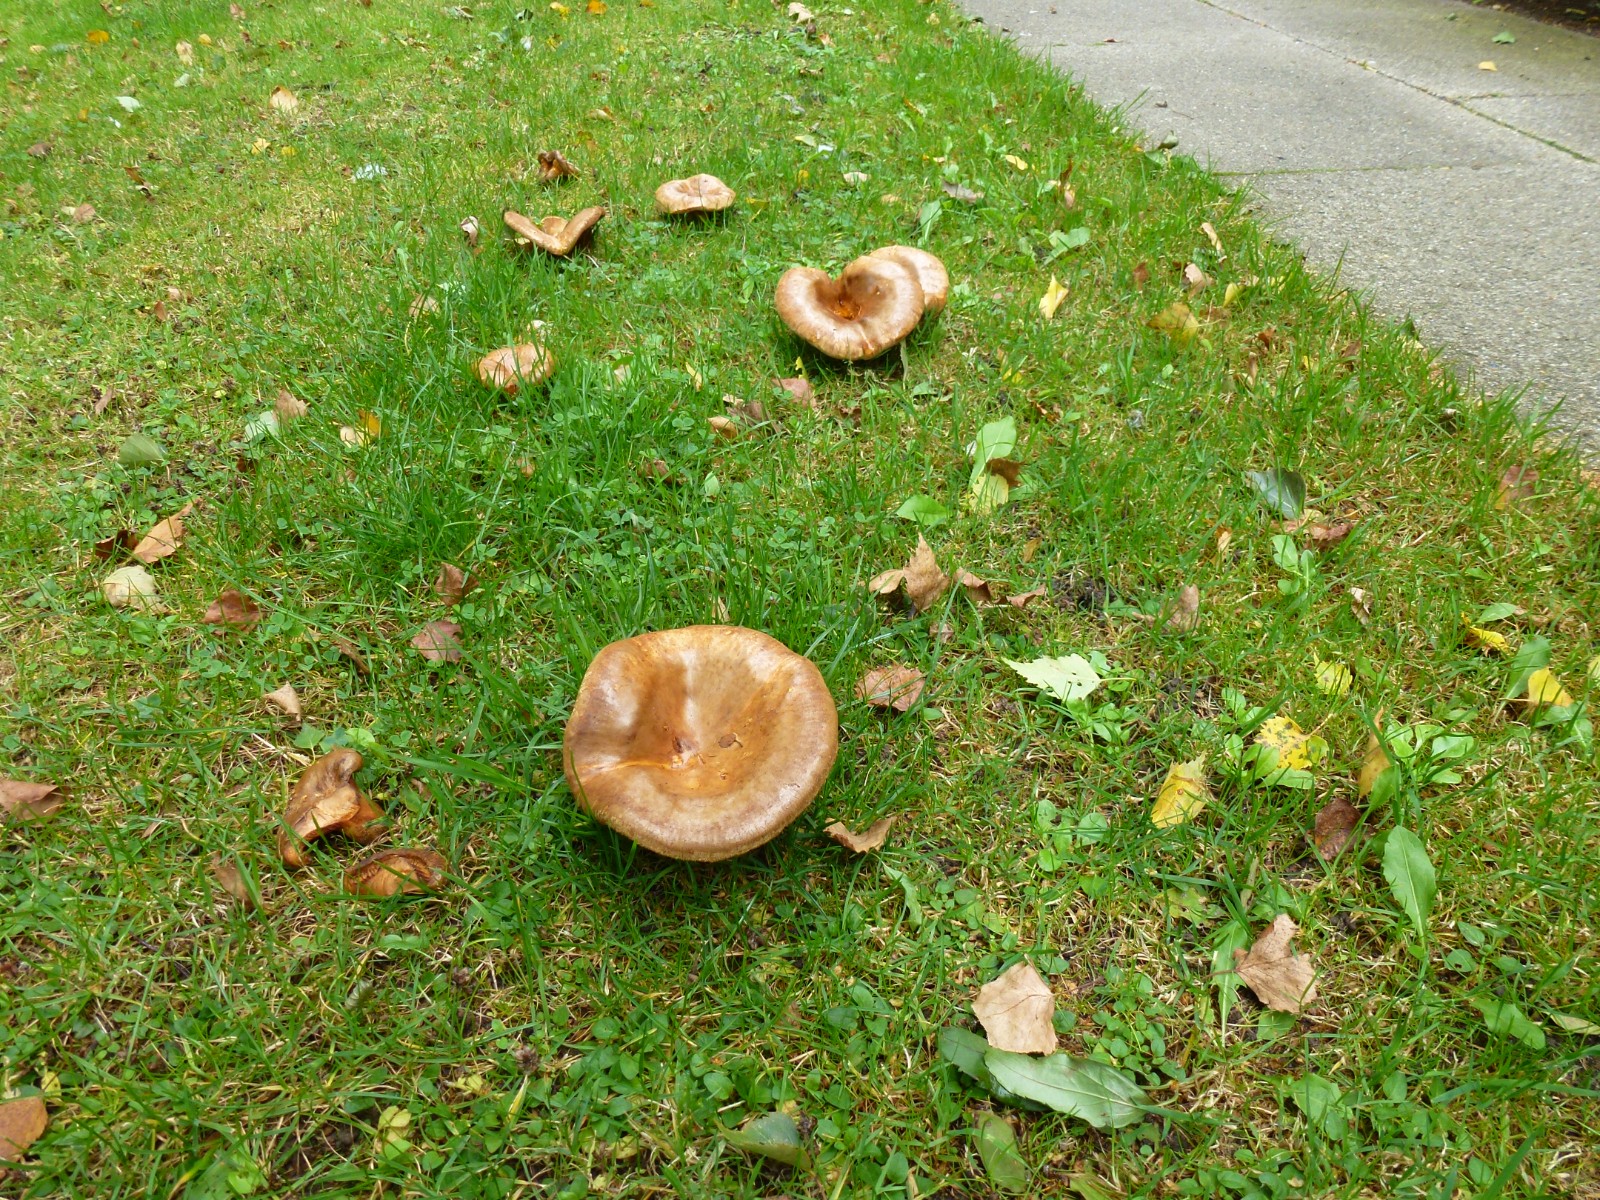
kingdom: Fungi
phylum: Basidiomycota
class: Agaricomycetes
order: Boletales
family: Paxillaceae
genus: Paxillus
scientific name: Paxillus
